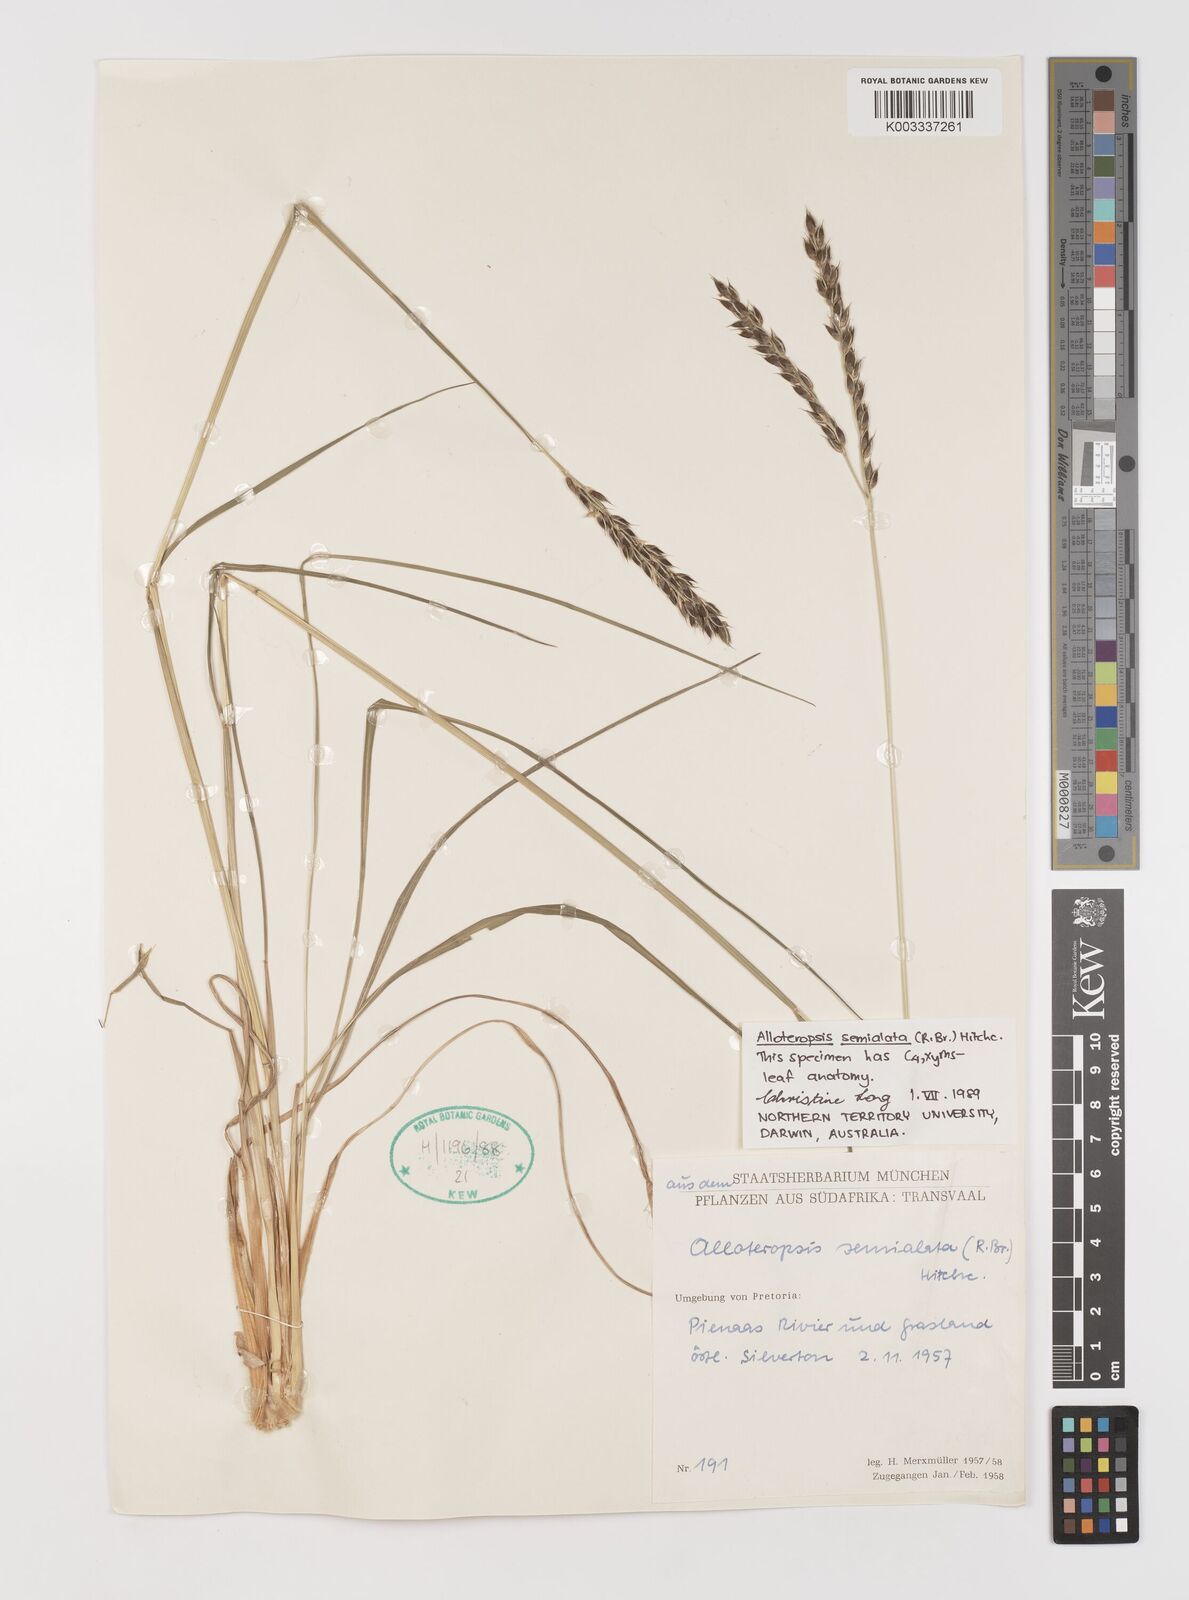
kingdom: Plantae
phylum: Tracheophyta
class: Liliopsida
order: Poales
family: Poaceae
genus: Alloteropsis
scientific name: Alloteropsis semialata
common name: Cockatoo grass
